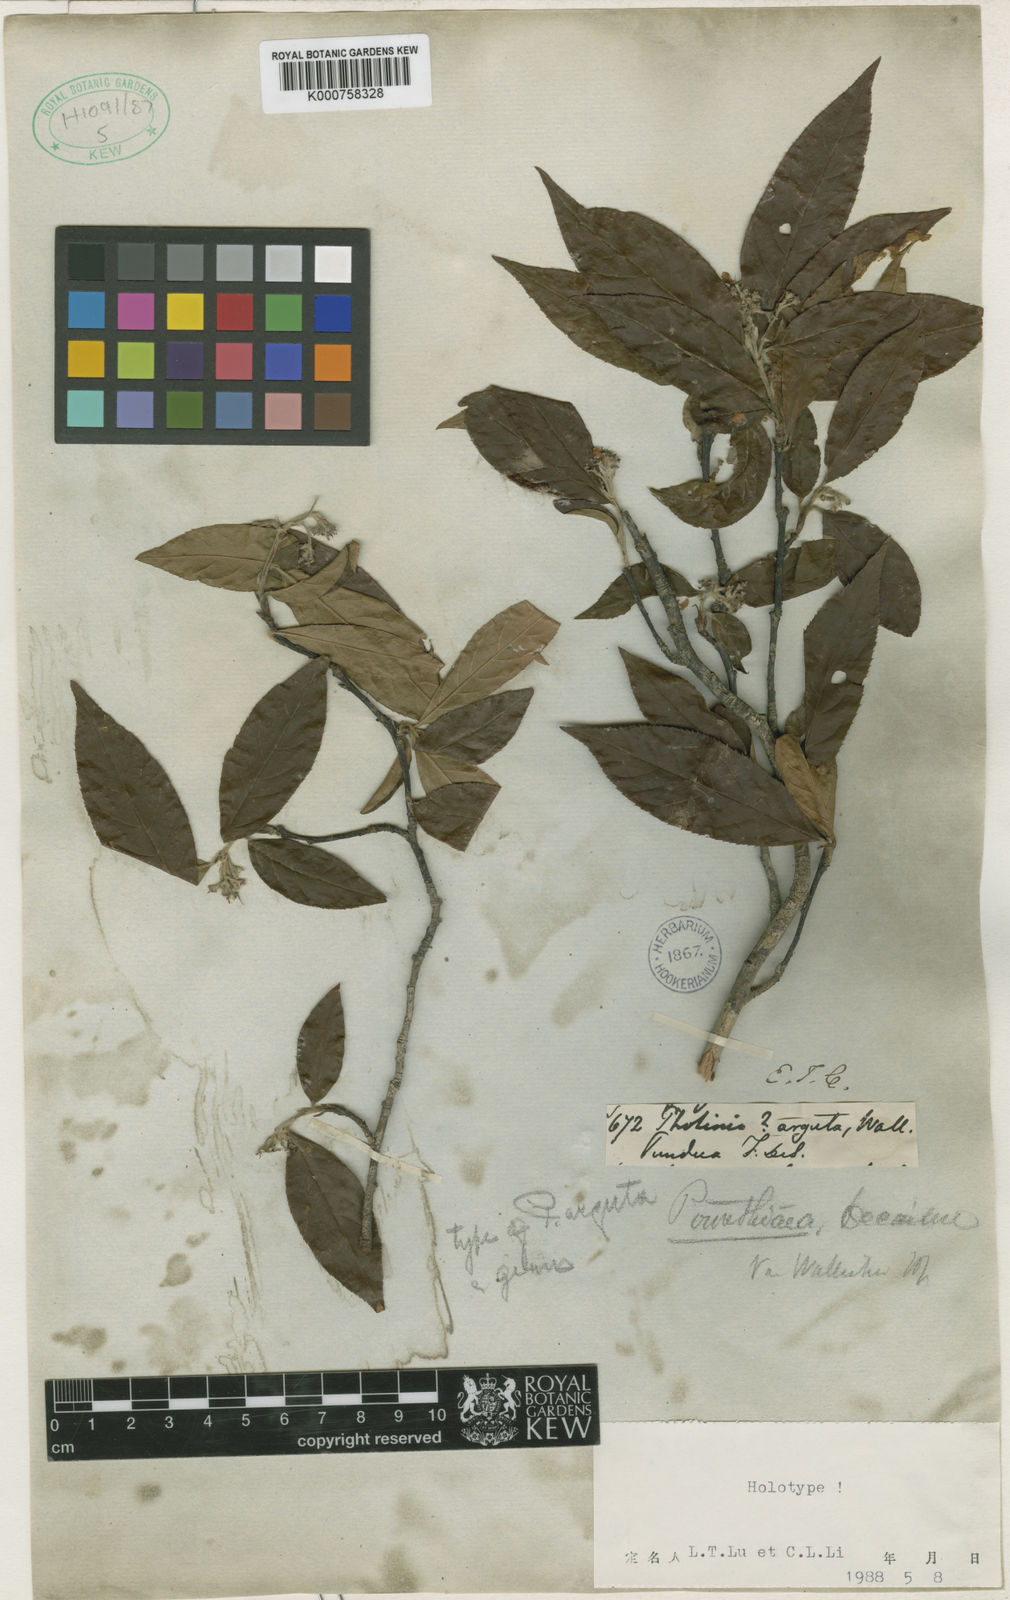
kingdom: Plantae
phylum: Tracheophyta
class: Magnoliopsida
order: Rosales
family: Rosaceae
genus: Photinia
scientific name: Photinia
